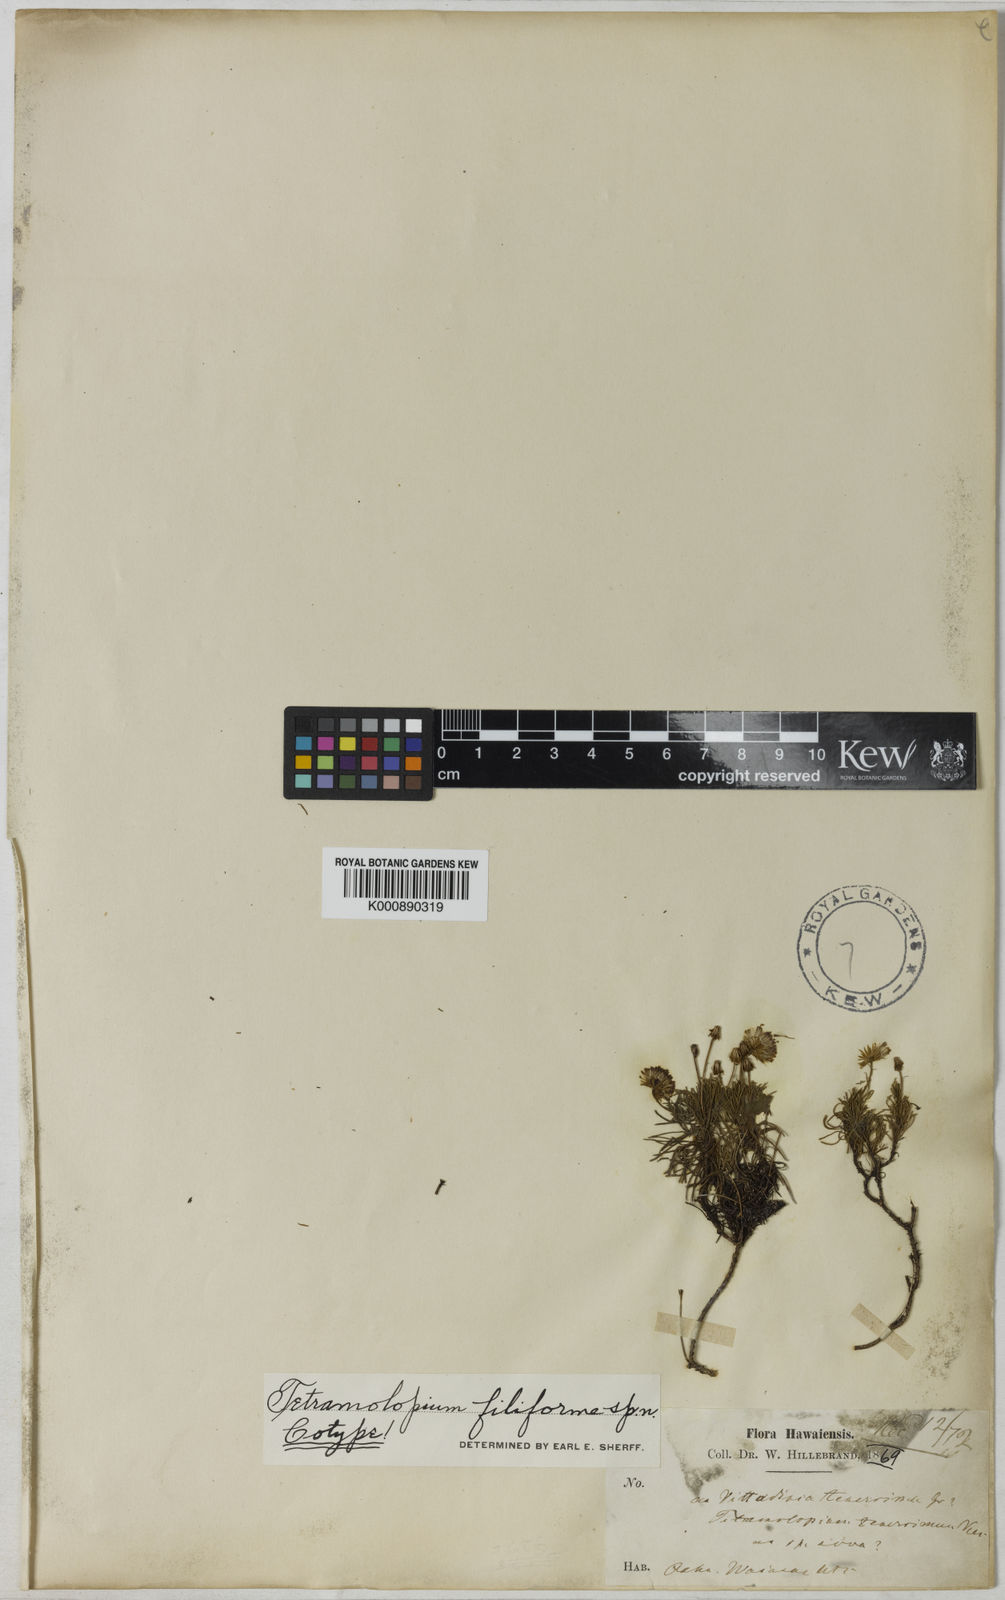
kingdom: Plantae
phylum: Tracheophyta
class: Magnoliopsida
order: Asterales
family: Asteraceae
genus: Tetramolopium
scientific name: Tetramolopium filiforme
